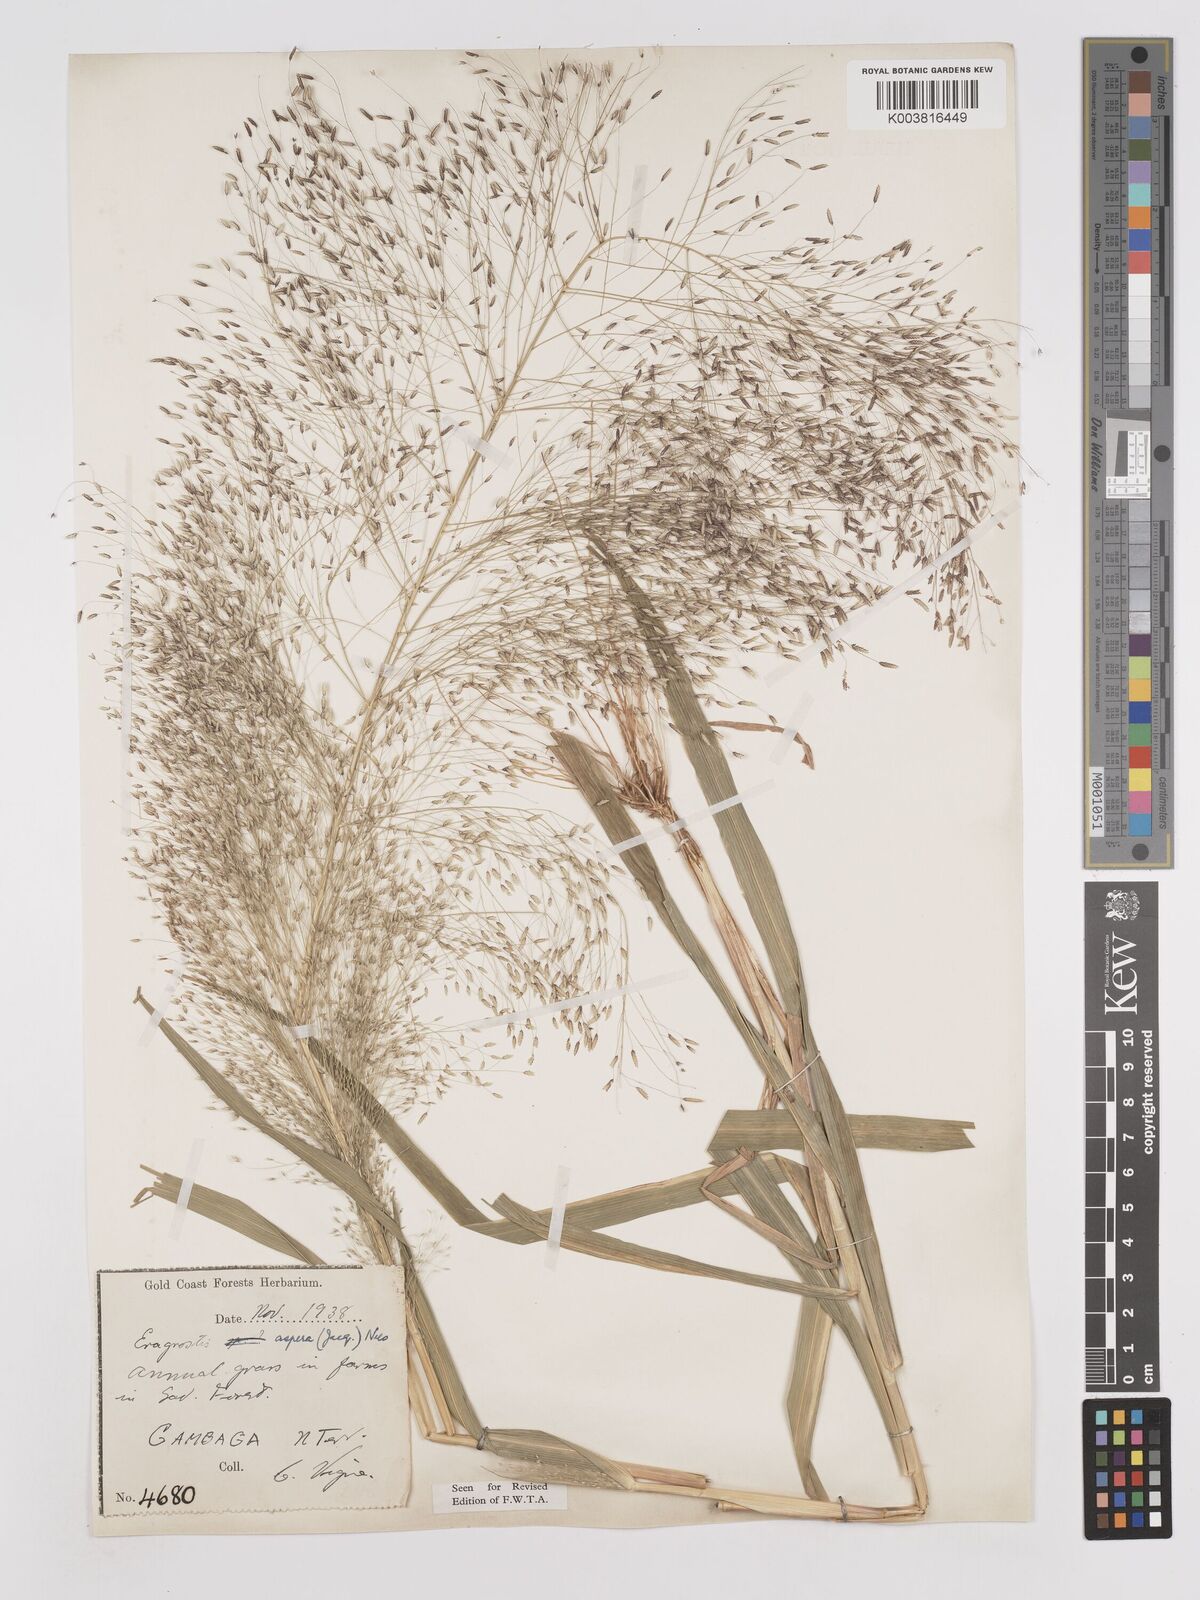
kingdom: Plantae
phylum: Tracheophyta
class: Liliopsida
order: Poales
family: Poaceae
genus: Eragrostis
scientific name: Eragrostis aspera
